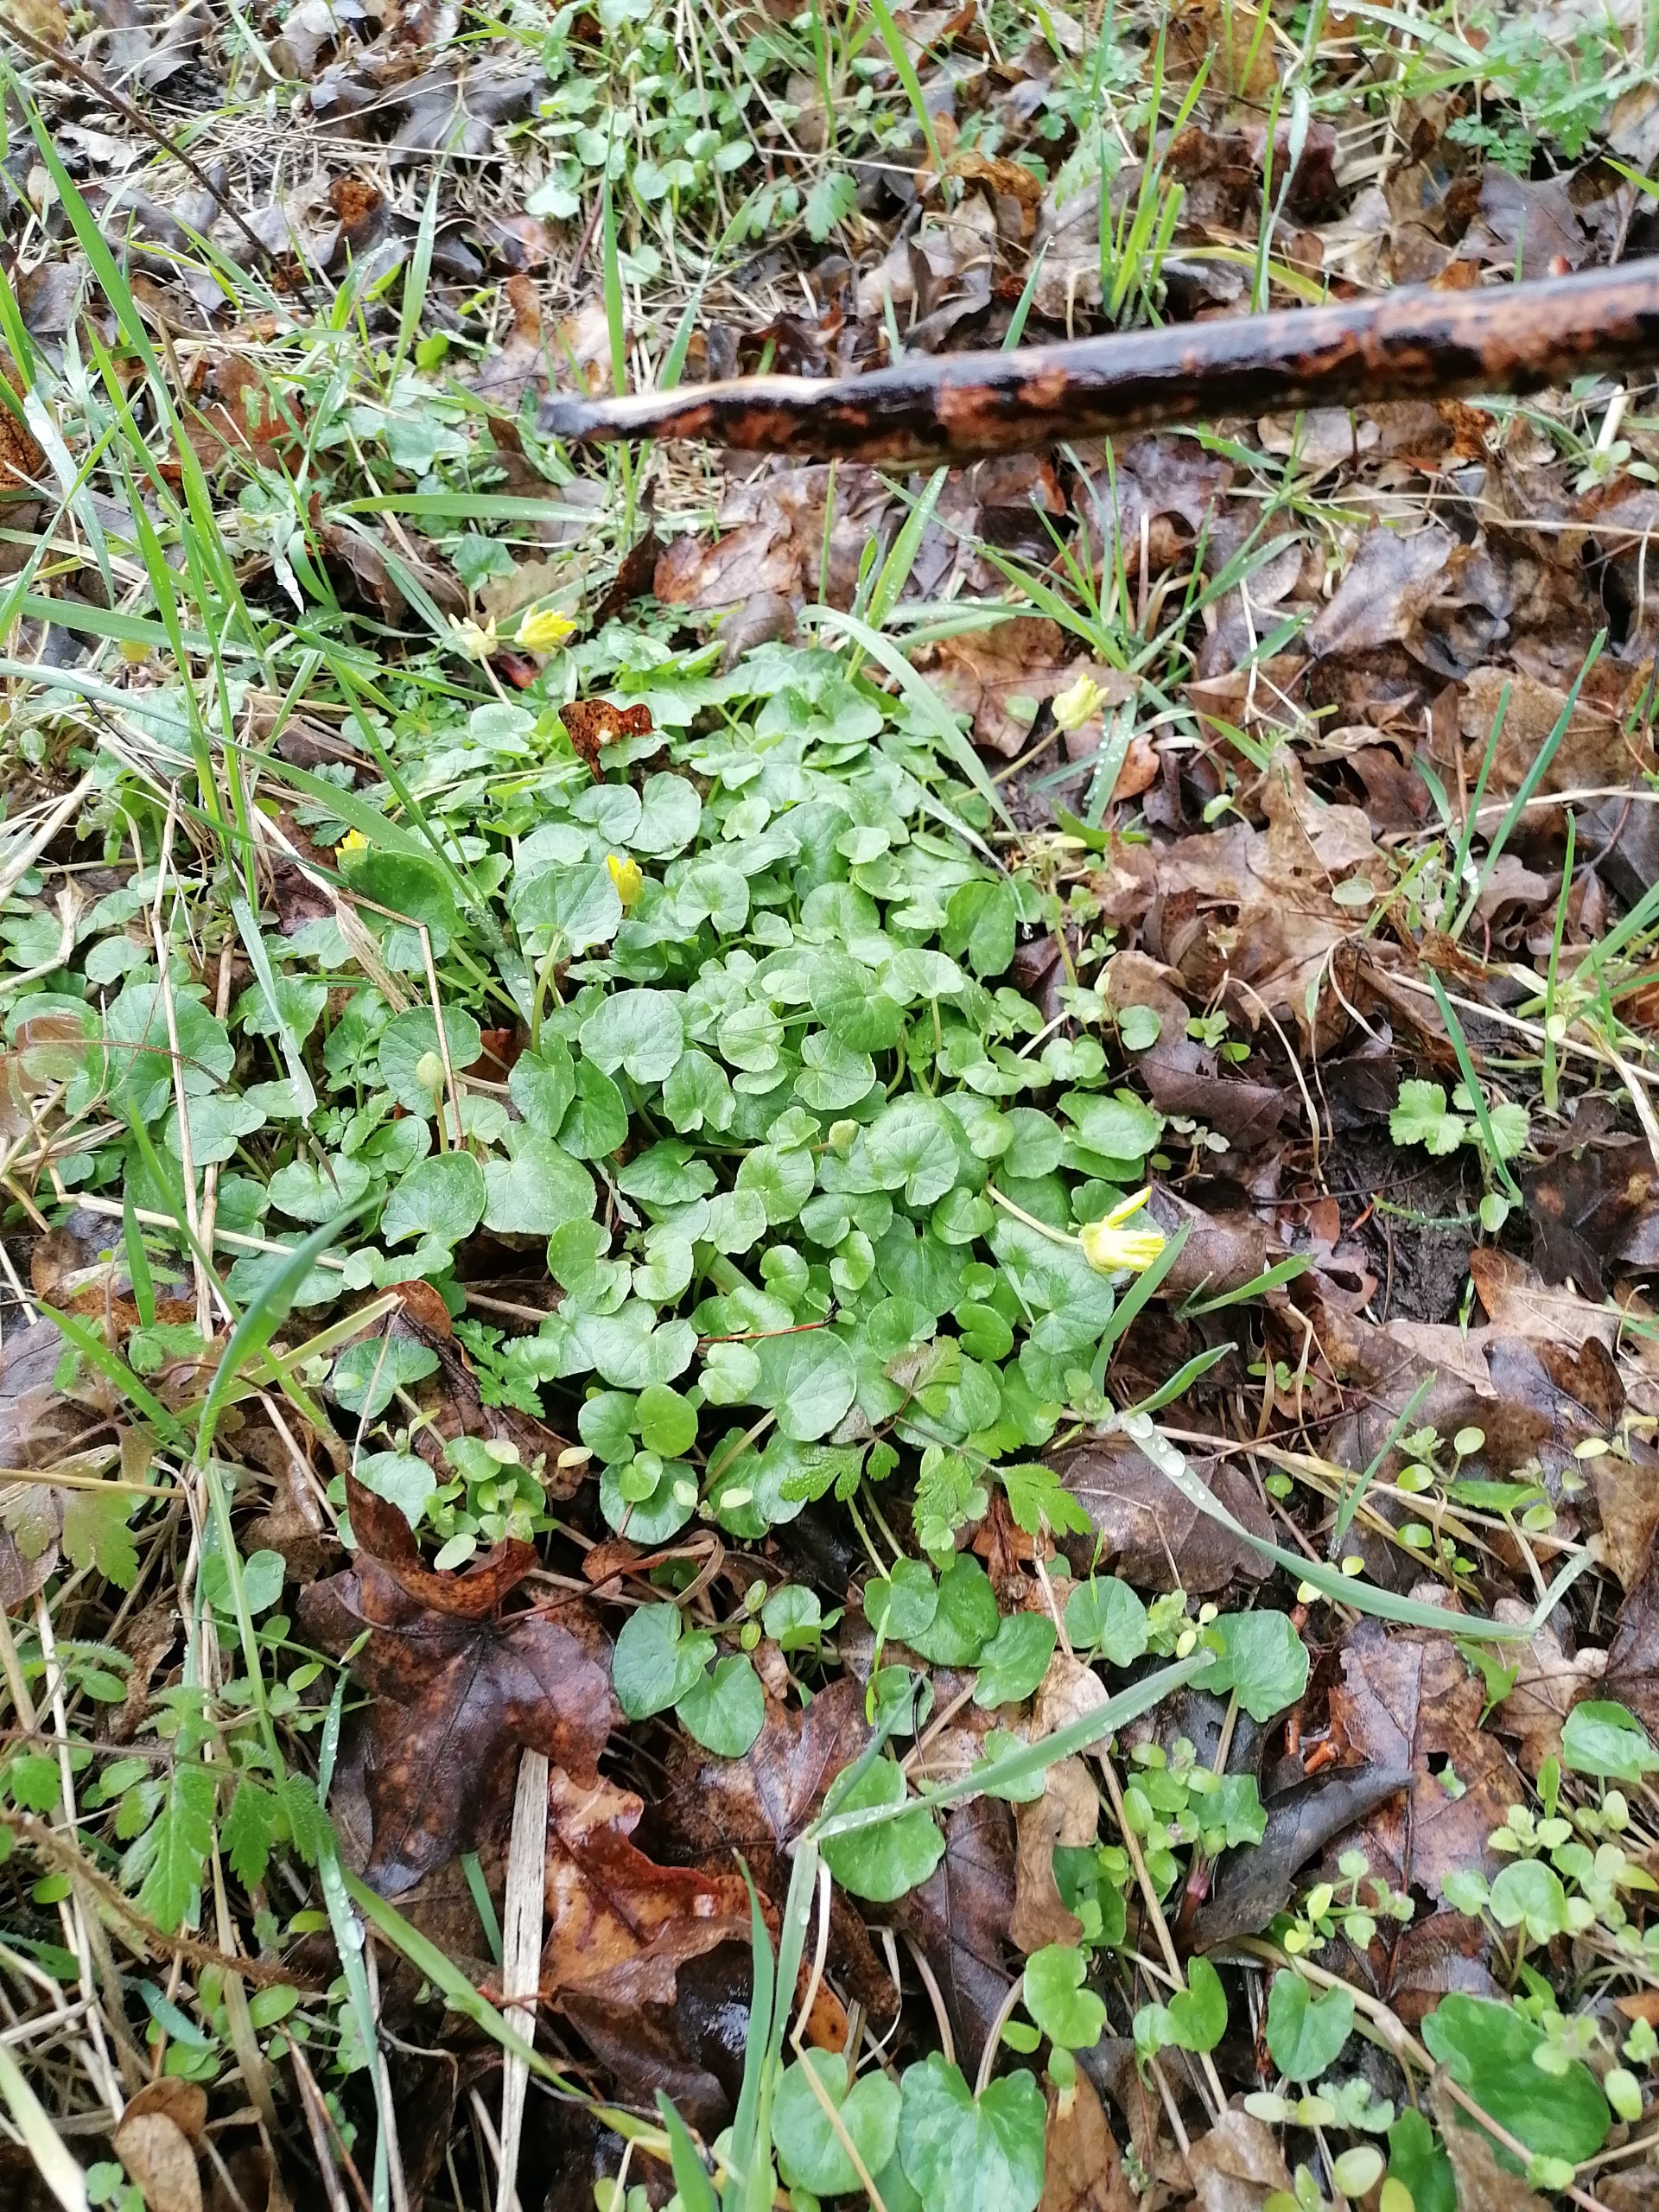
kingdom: Plantae
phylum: Tracheophyta
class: Magnoliopsida
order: Ranunculales
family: Ranunculaceae
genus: Ficaria
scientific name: Ficaria verna
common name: Vorterod
